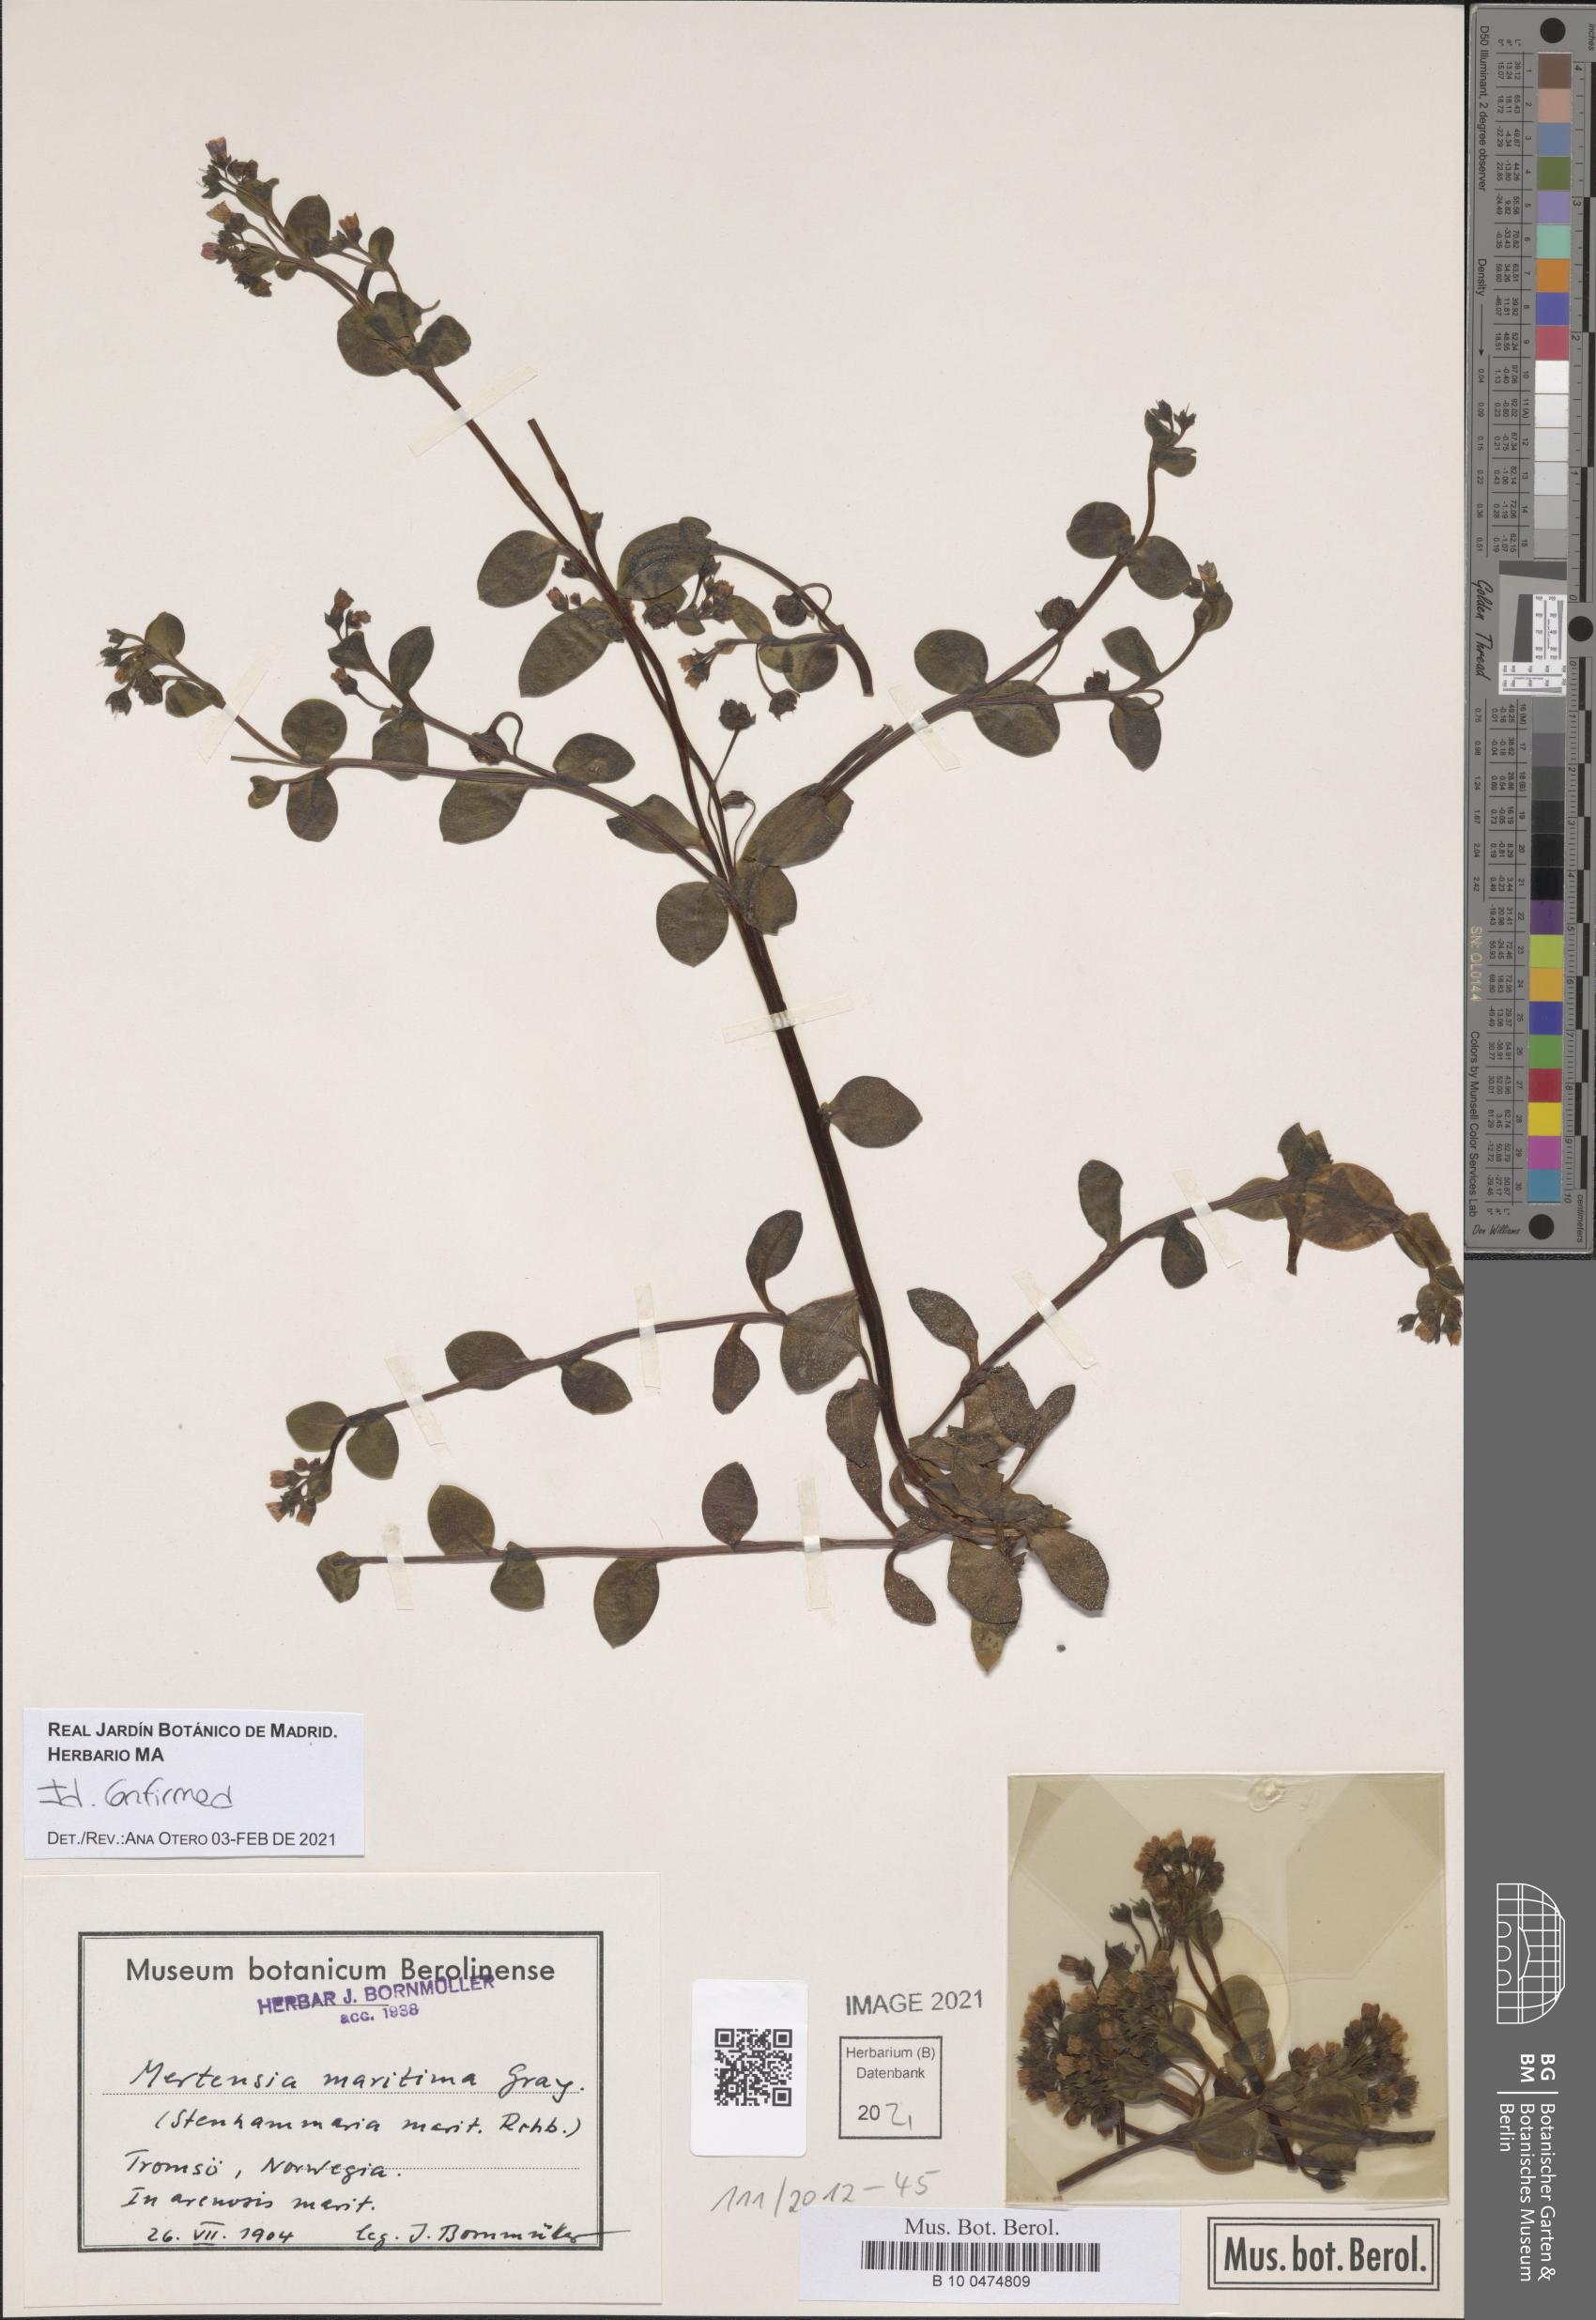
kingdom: Plantae
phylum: Tracheophyta
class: Magnoliopsida
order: Boraginales
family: Boraginaceae
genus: Mertensia
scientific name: Mertensia maritima
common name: Oysterplant
